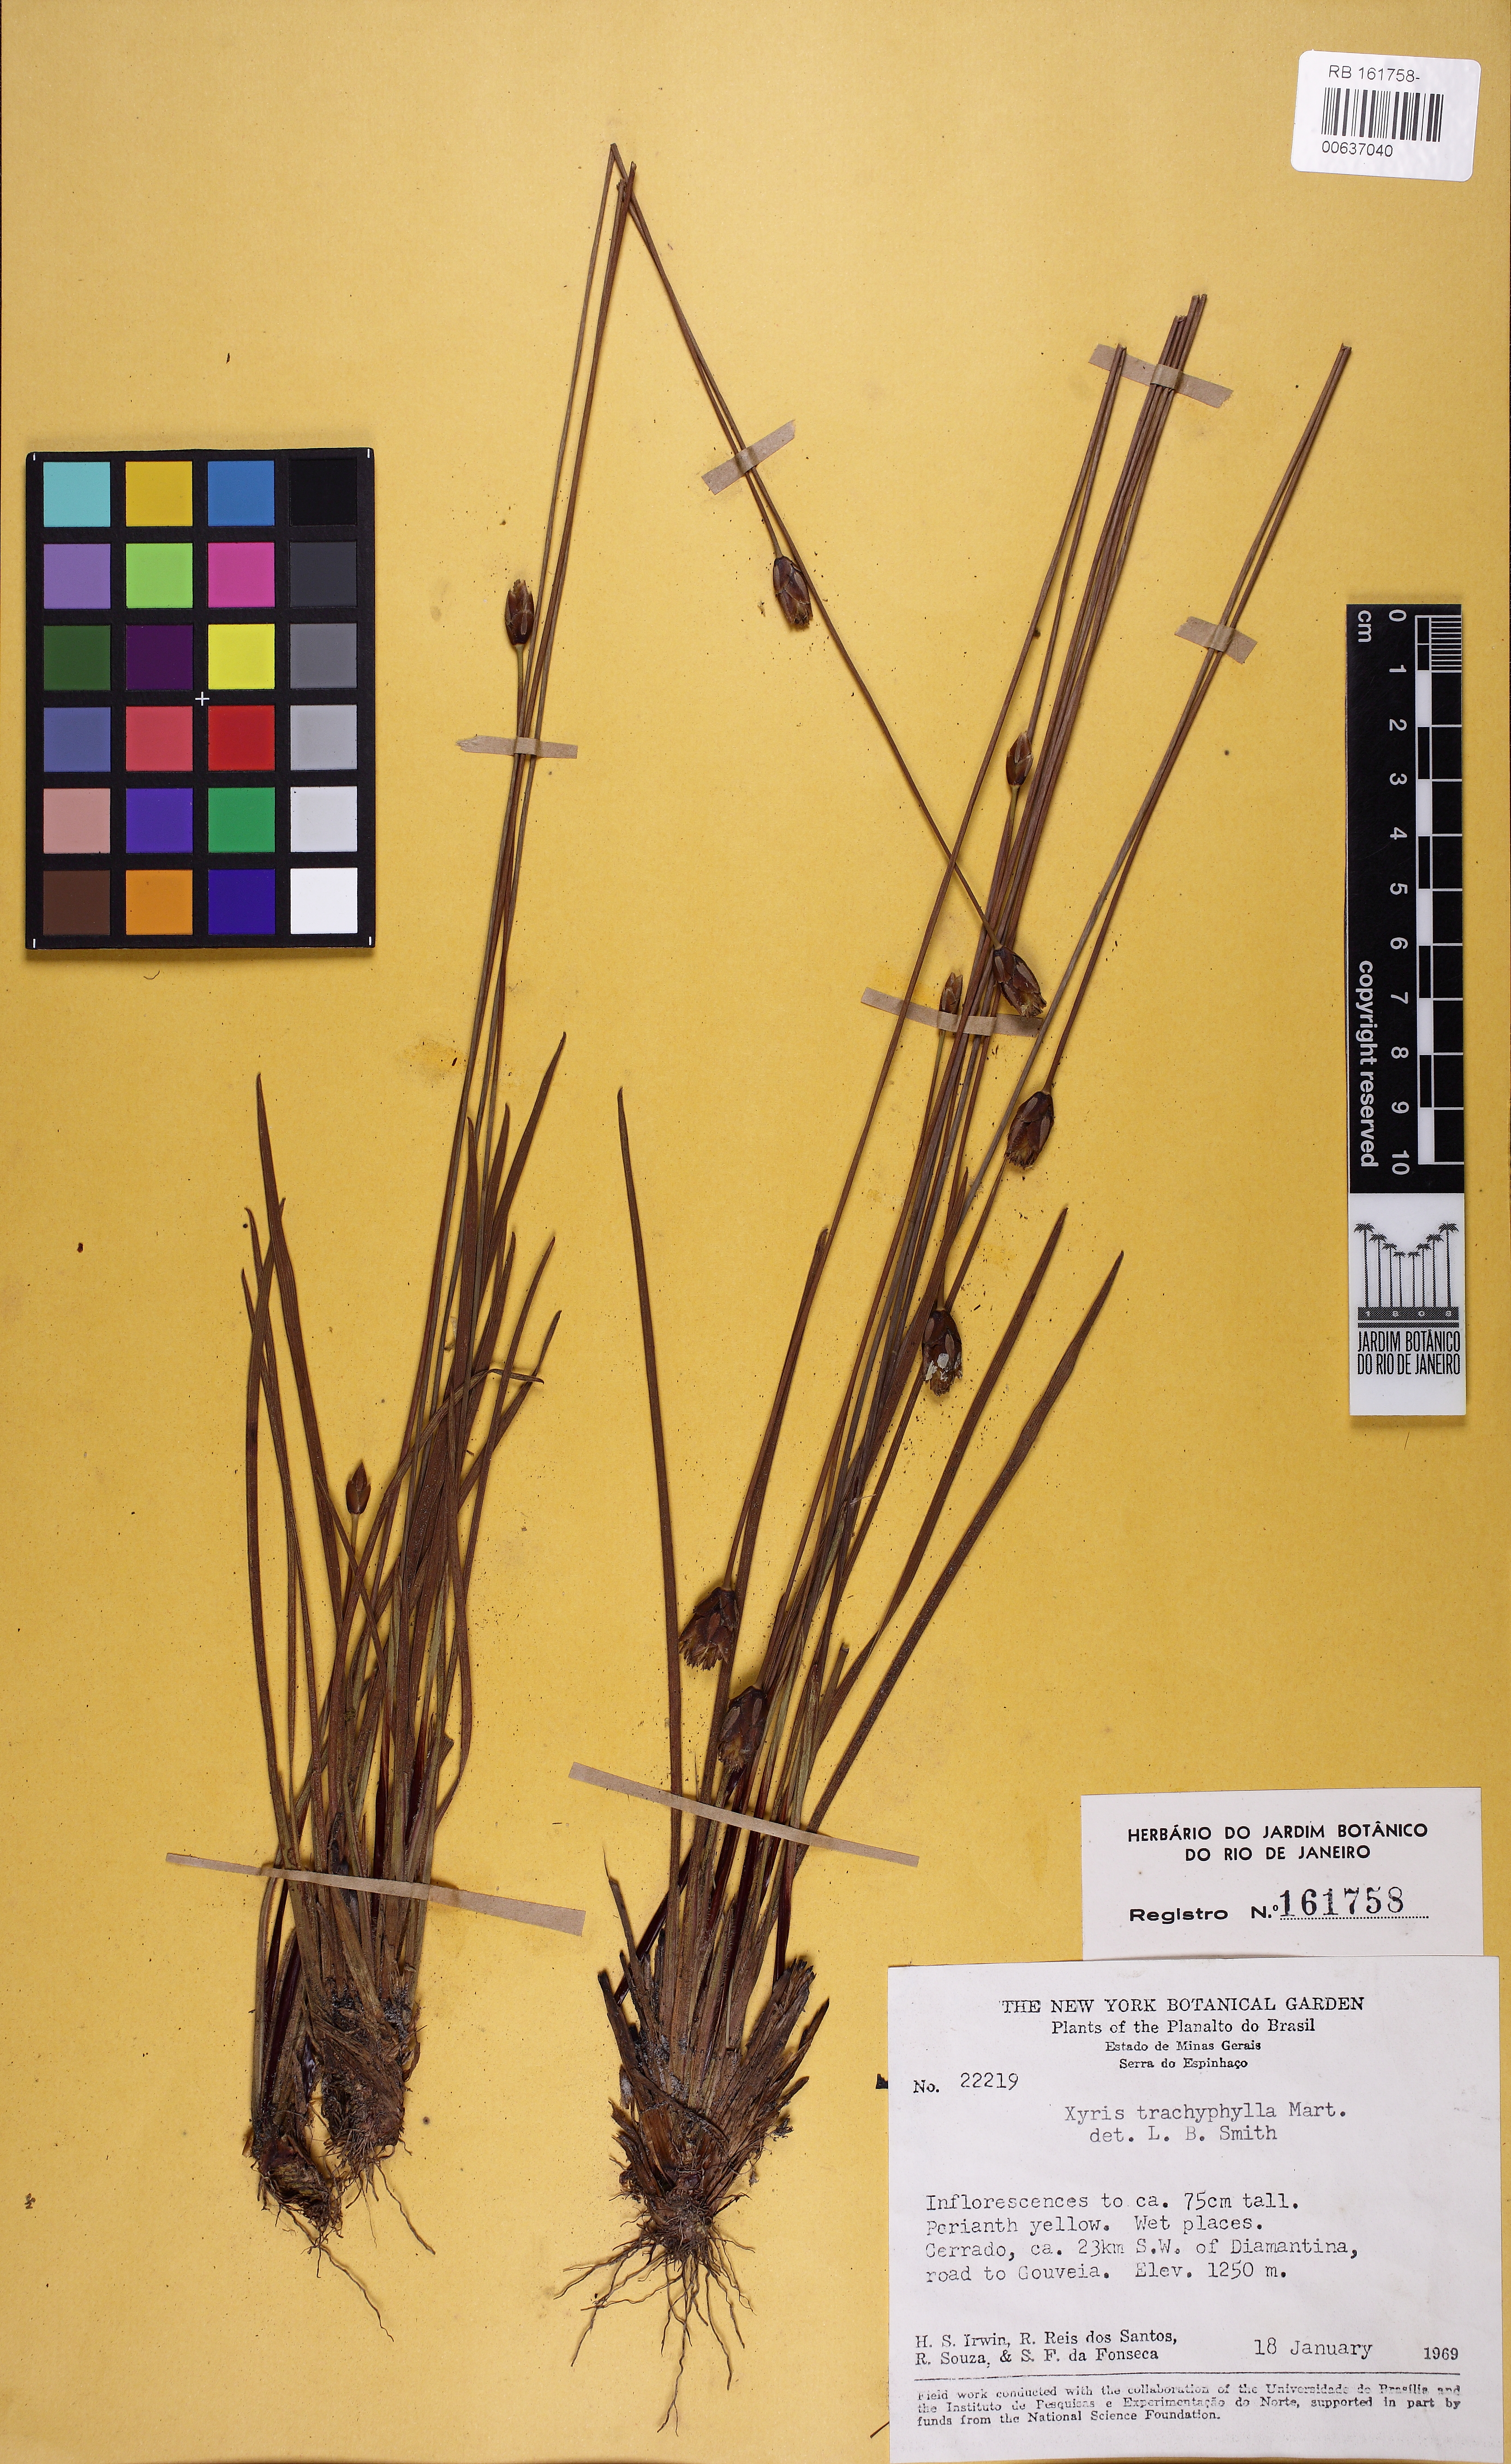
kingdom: Plantae
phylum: Tracheophyta
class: Liliopsida
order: Poales
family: Xyridaceae
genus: Xyris
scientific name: Xyris trachyphylla
